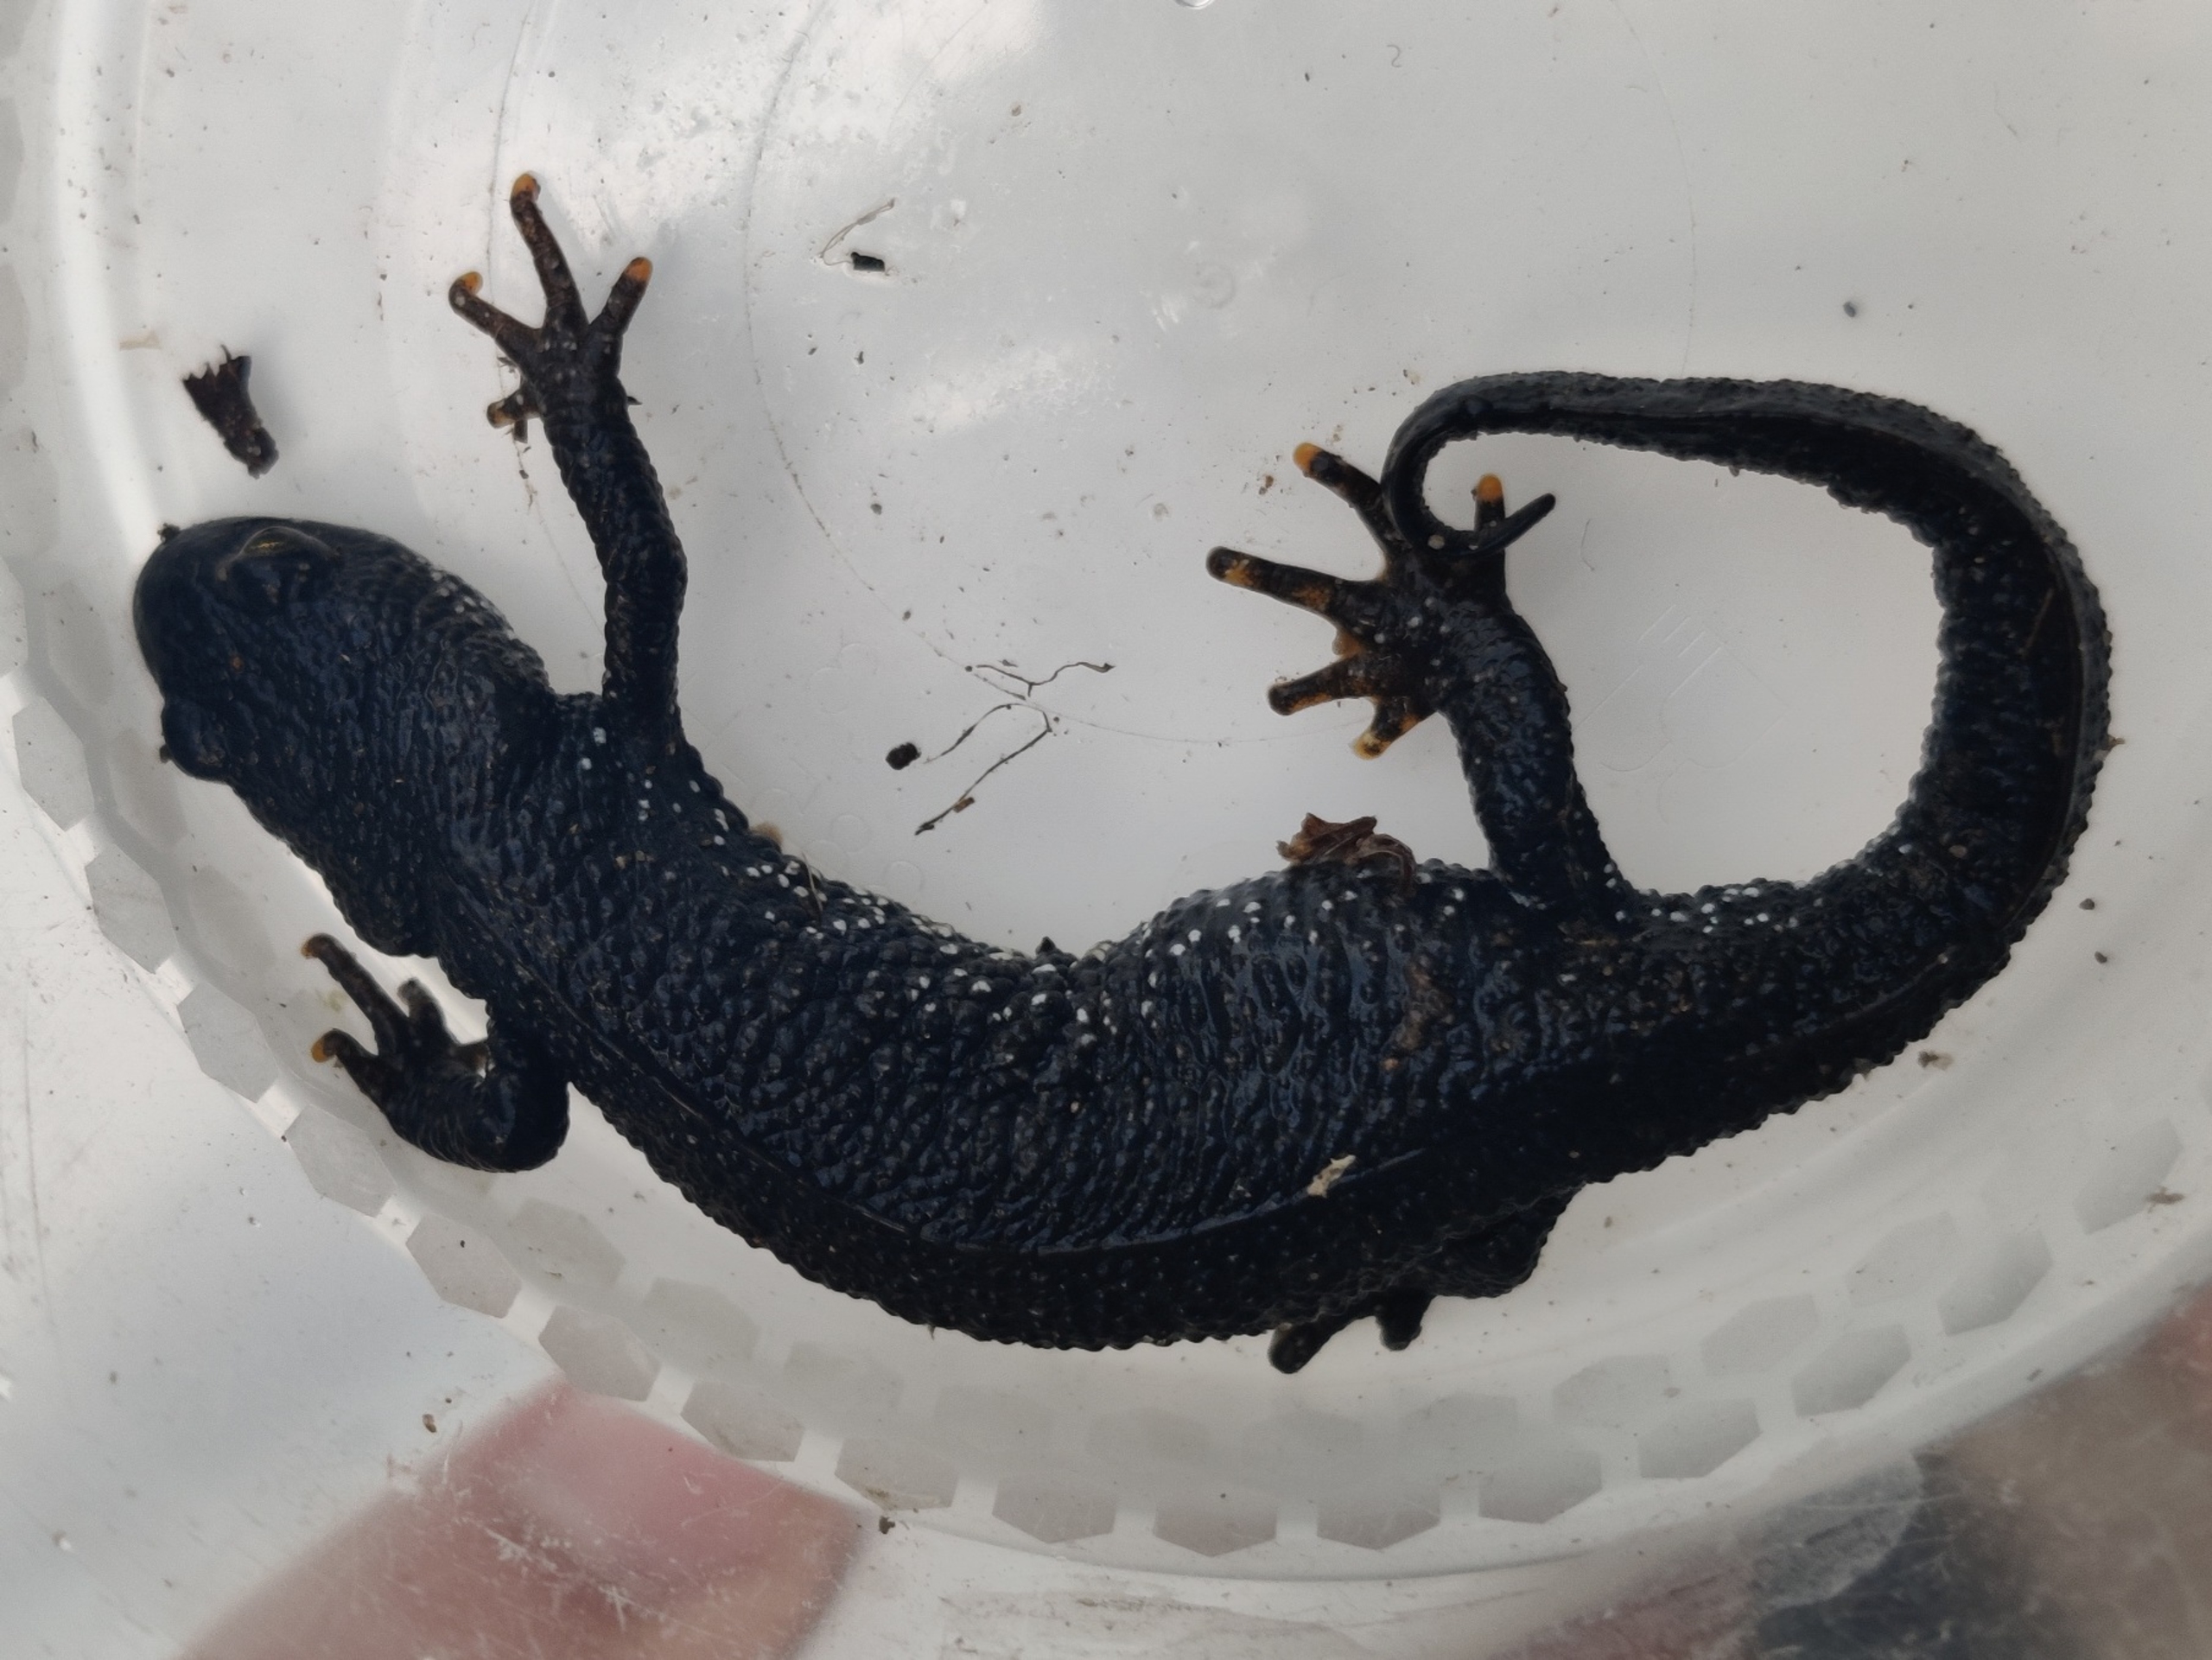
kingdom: Animalia
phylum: Chordata
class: Amphibia
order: Caudata
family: Salamandridae
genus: Triturus
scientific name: Triturus cristatus
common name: Stor vandsalamander
